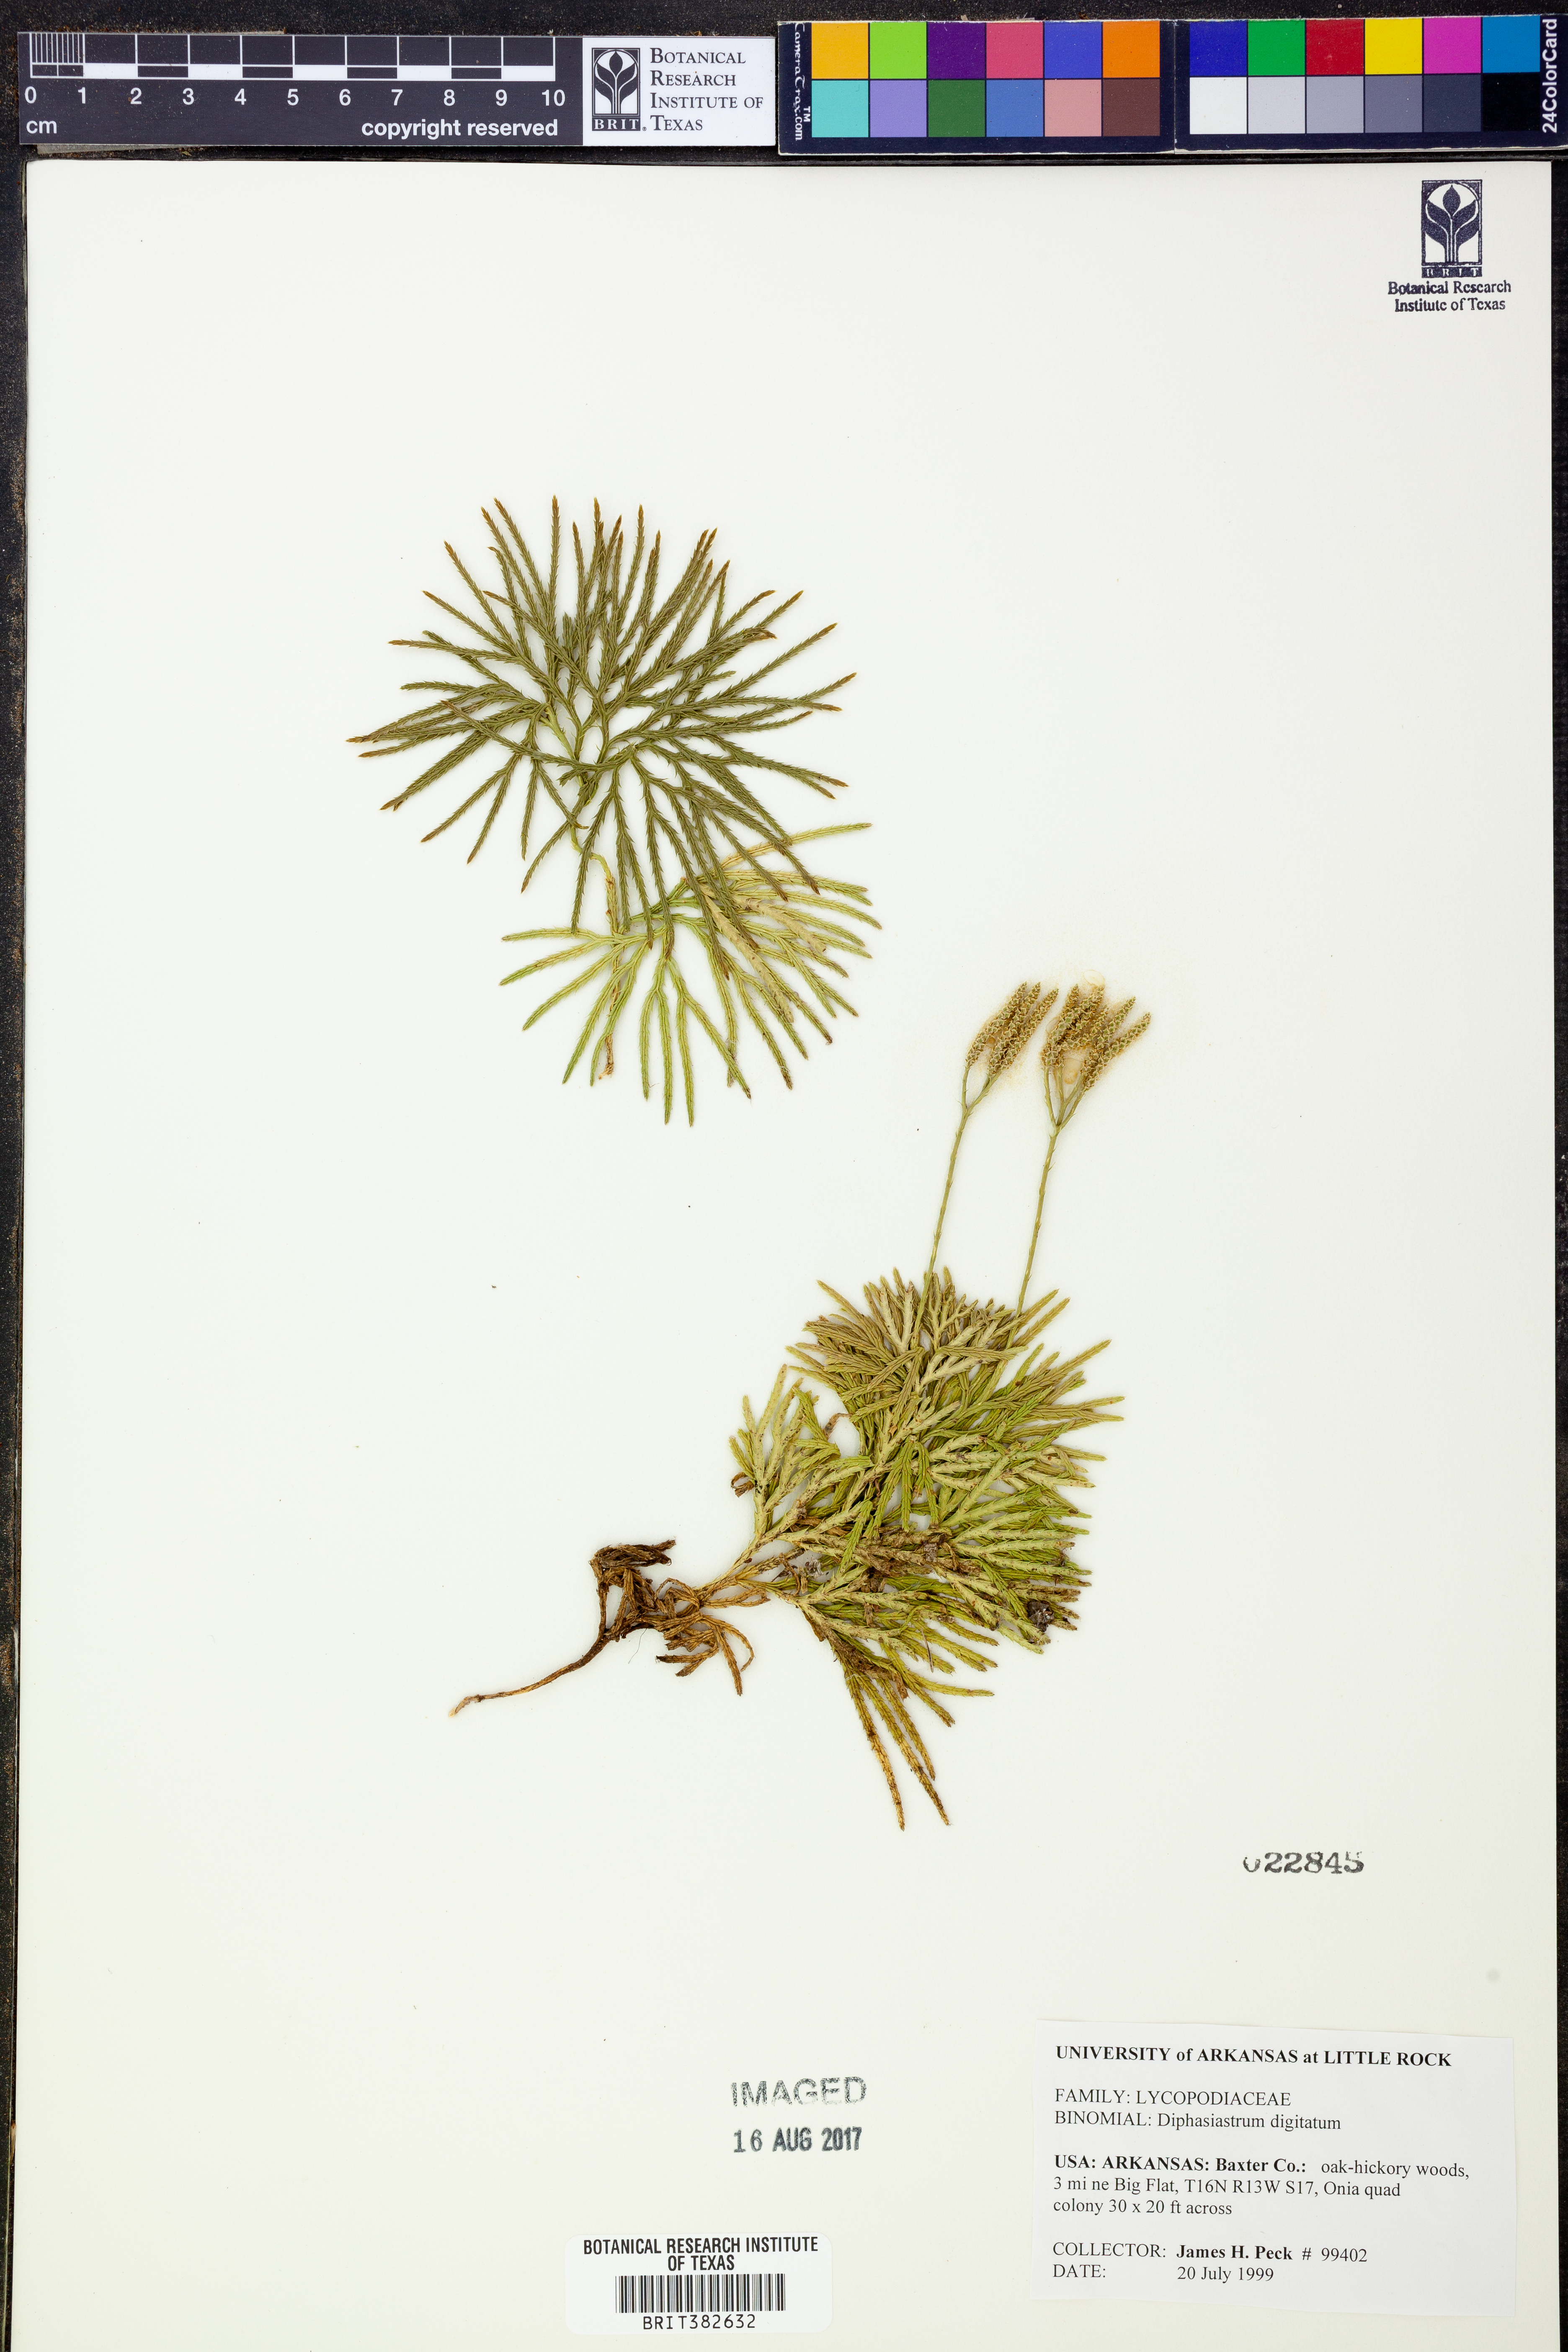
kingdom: Plantae
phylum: Tracheophyta
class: Lycopodiopsida
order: Lycopodiales
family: Lycopodiaceae
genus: Diphasiastrum
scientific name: Diphasiastrum digitatum
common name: Southern running-pine
